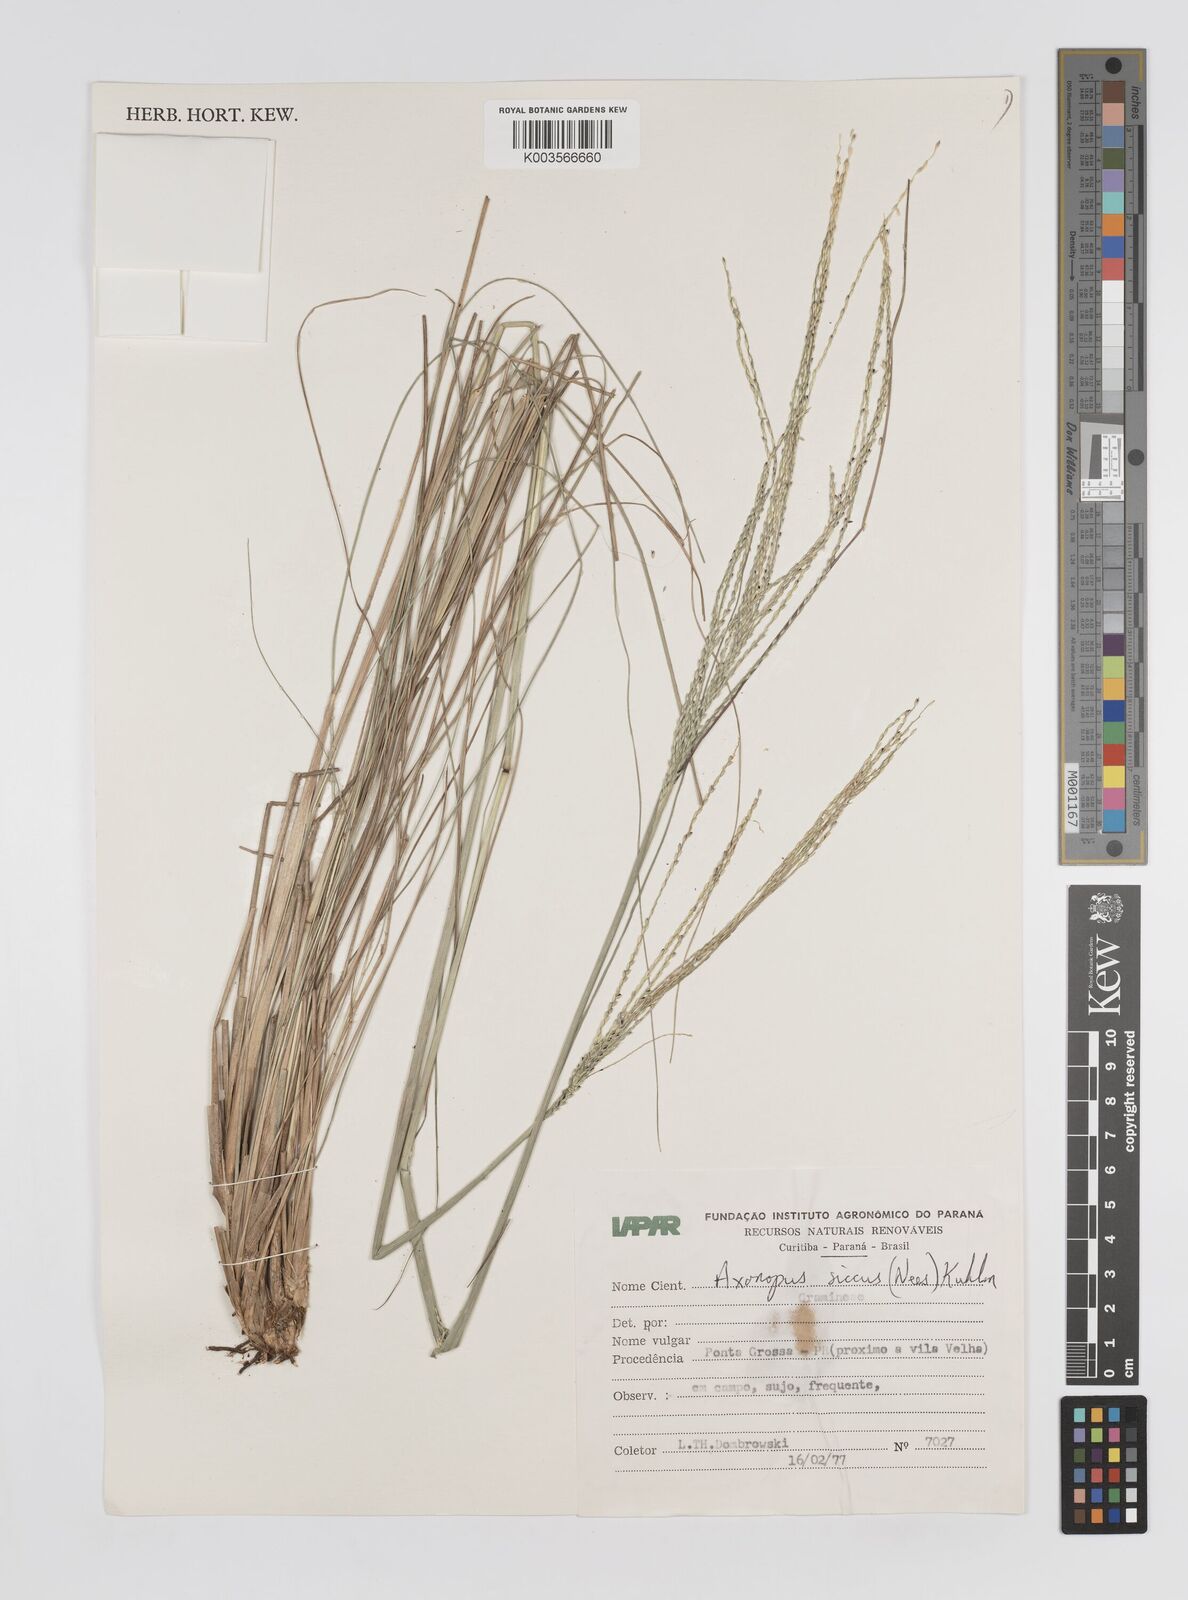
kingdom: Plantae
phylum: Tracheophyta
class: Liliopsida
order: Poales
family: Poaceae
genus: Axonopus
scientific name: Axonopus siccus
